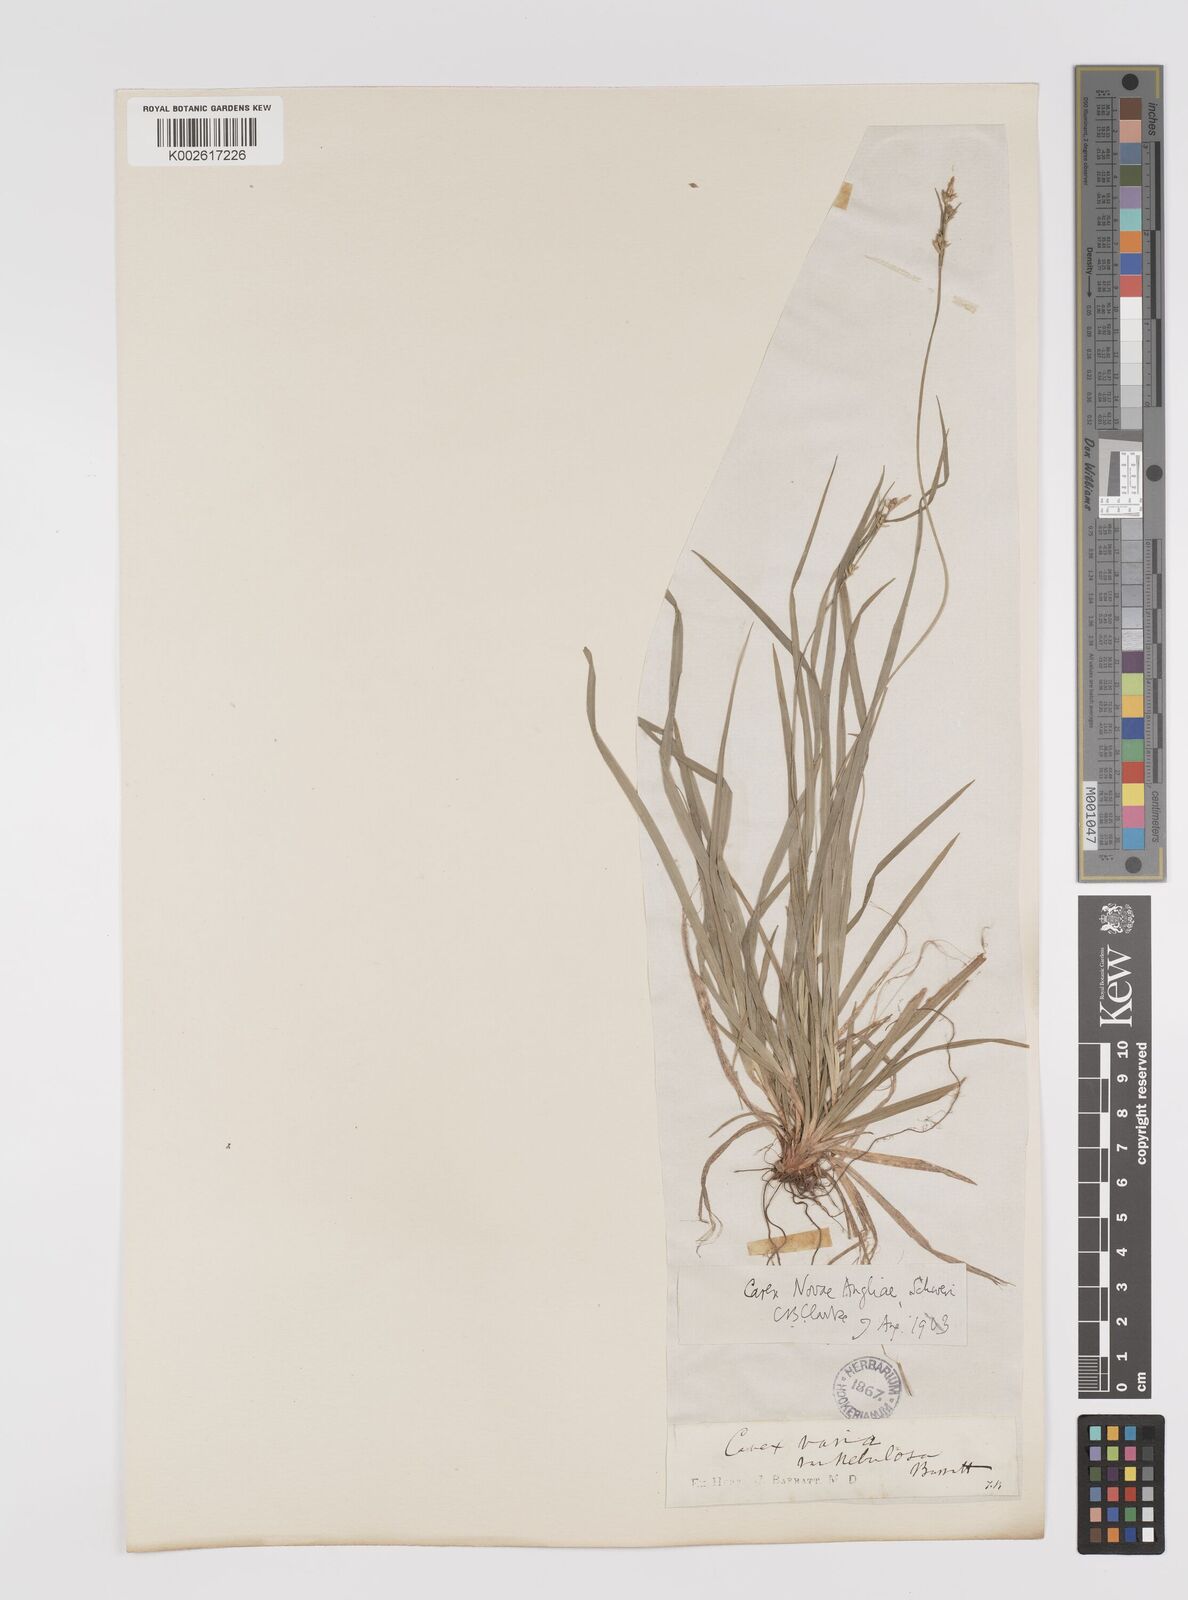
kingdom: Plantae
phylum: Tracheophyta
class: Liliopsida
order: Poales
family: Cyperaceae
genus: Carex
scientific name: Carex albicans
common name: Bellow-beaked sedge
